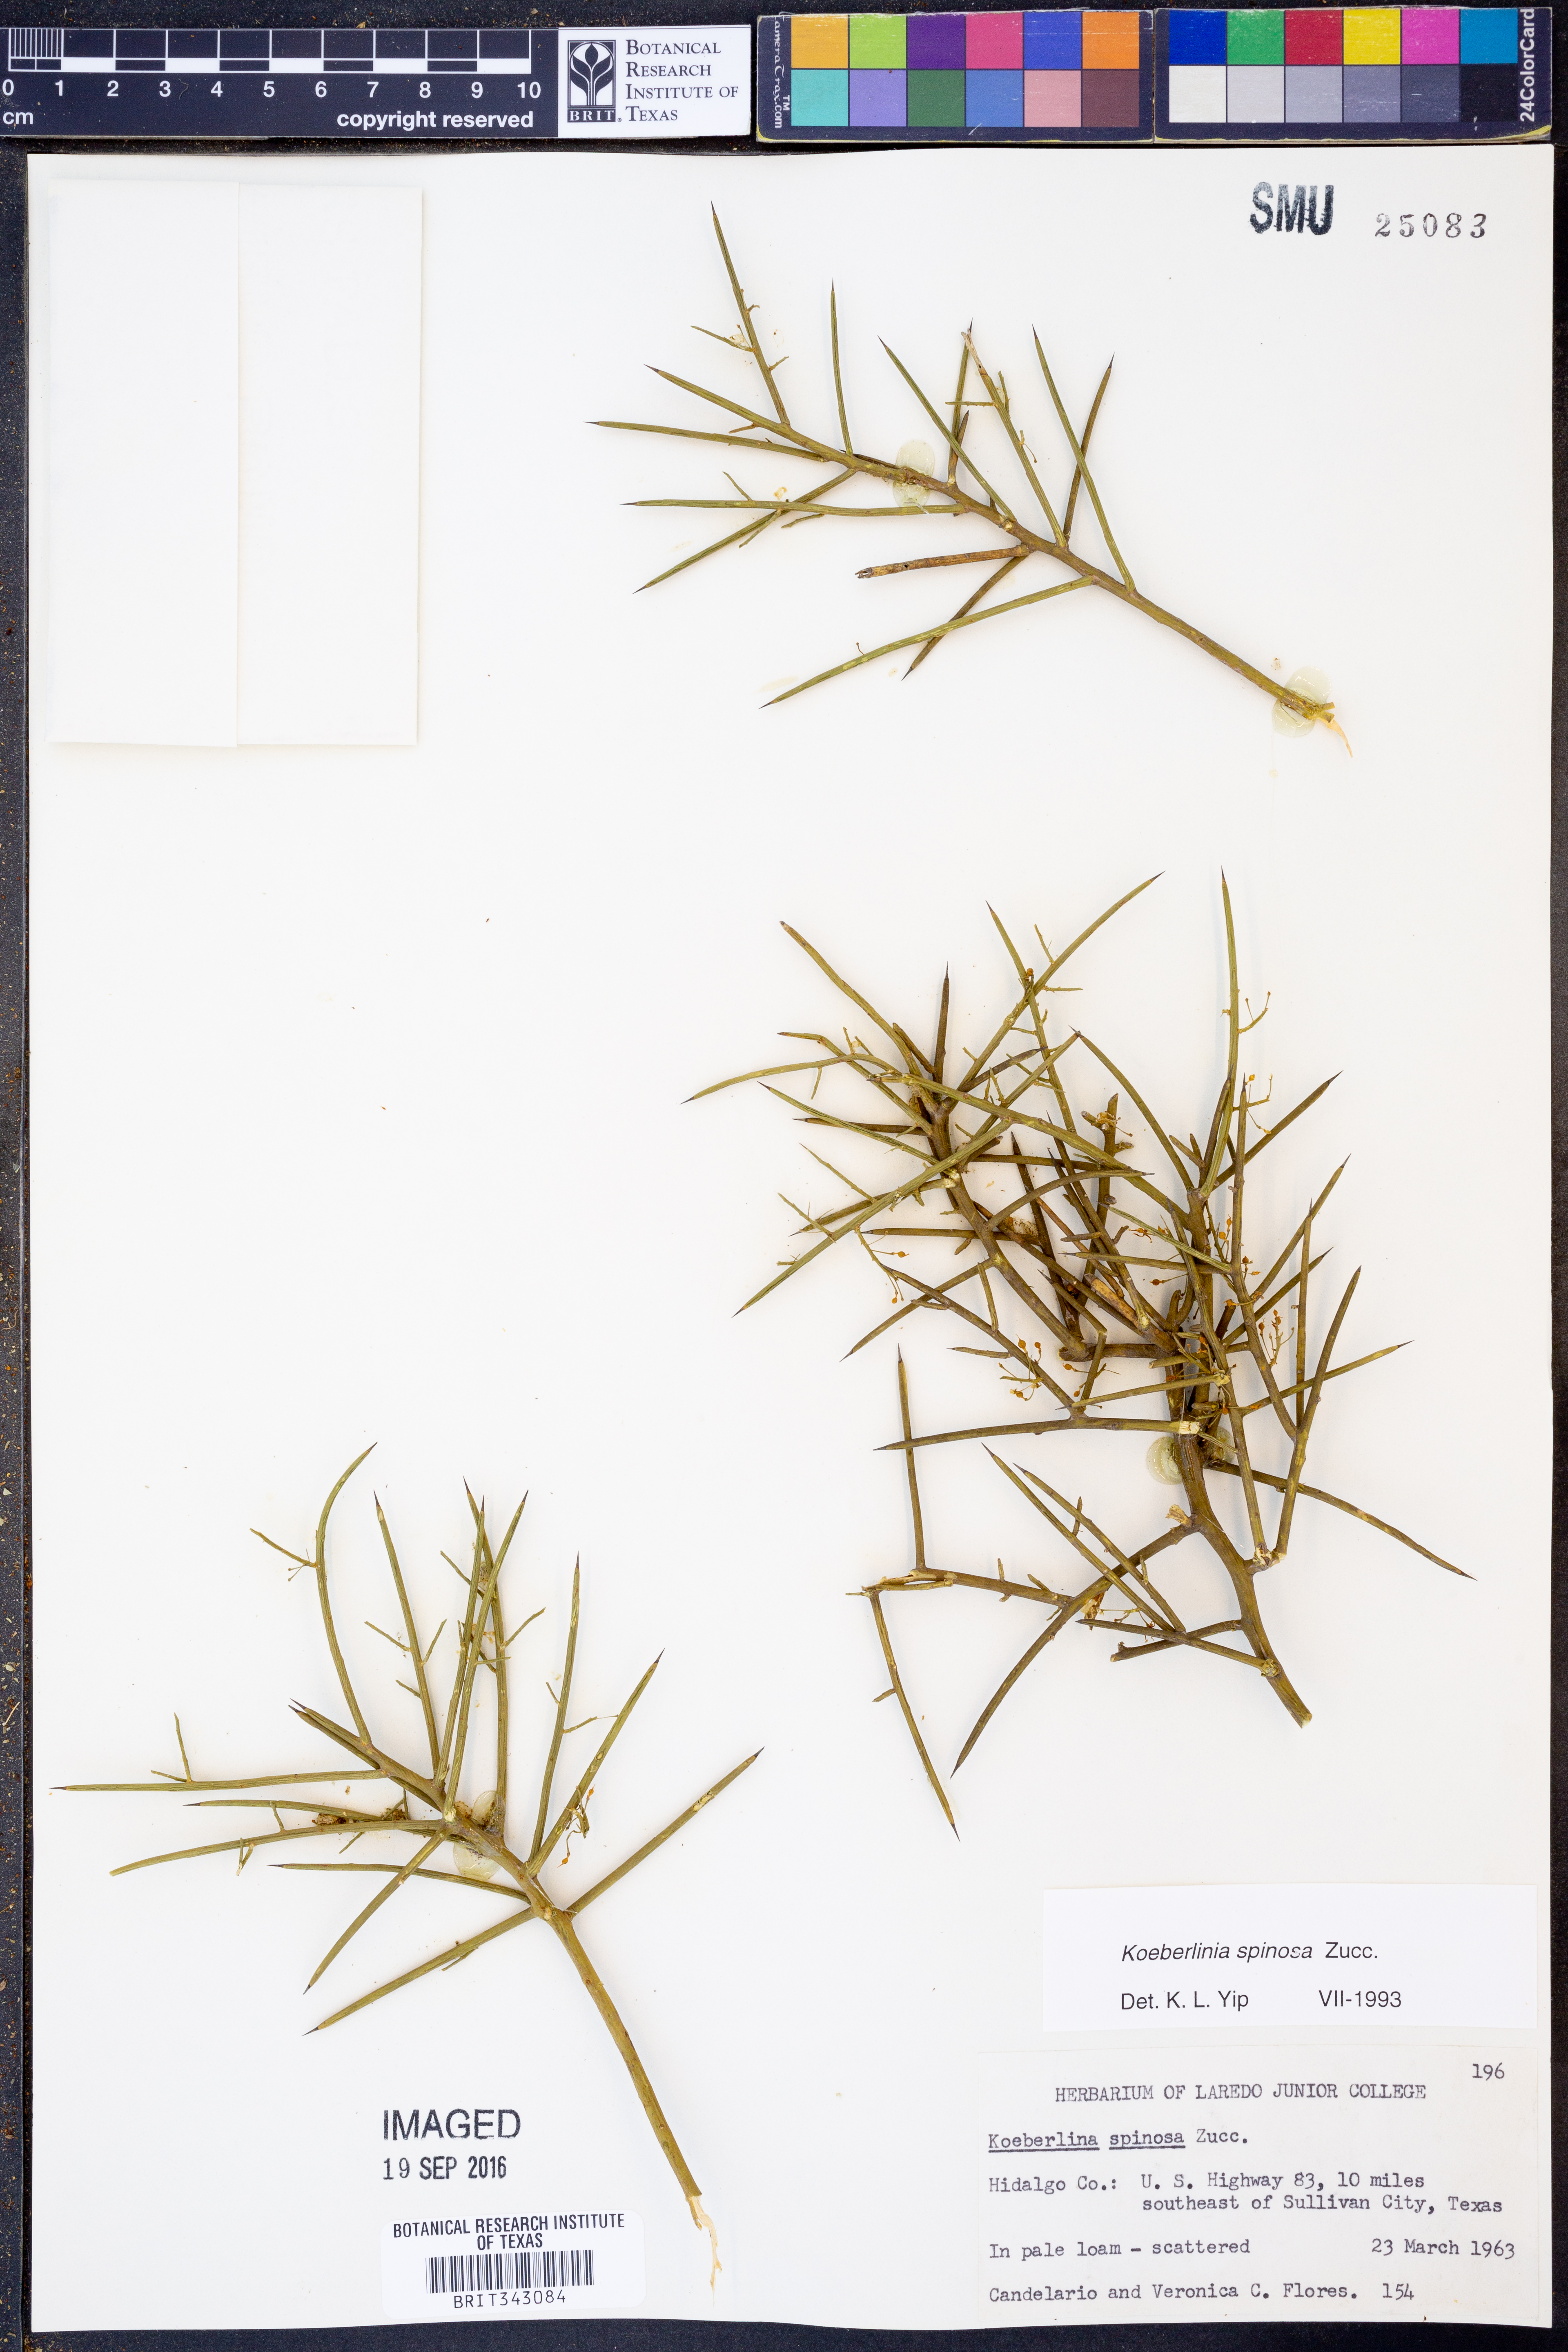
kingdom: Plantae
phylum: Tracheophyta
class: Magnoliopsida
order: Brassicales
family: Koeberliniaceae
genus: Koeberlinia
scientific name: Koeberlinia spinosa
